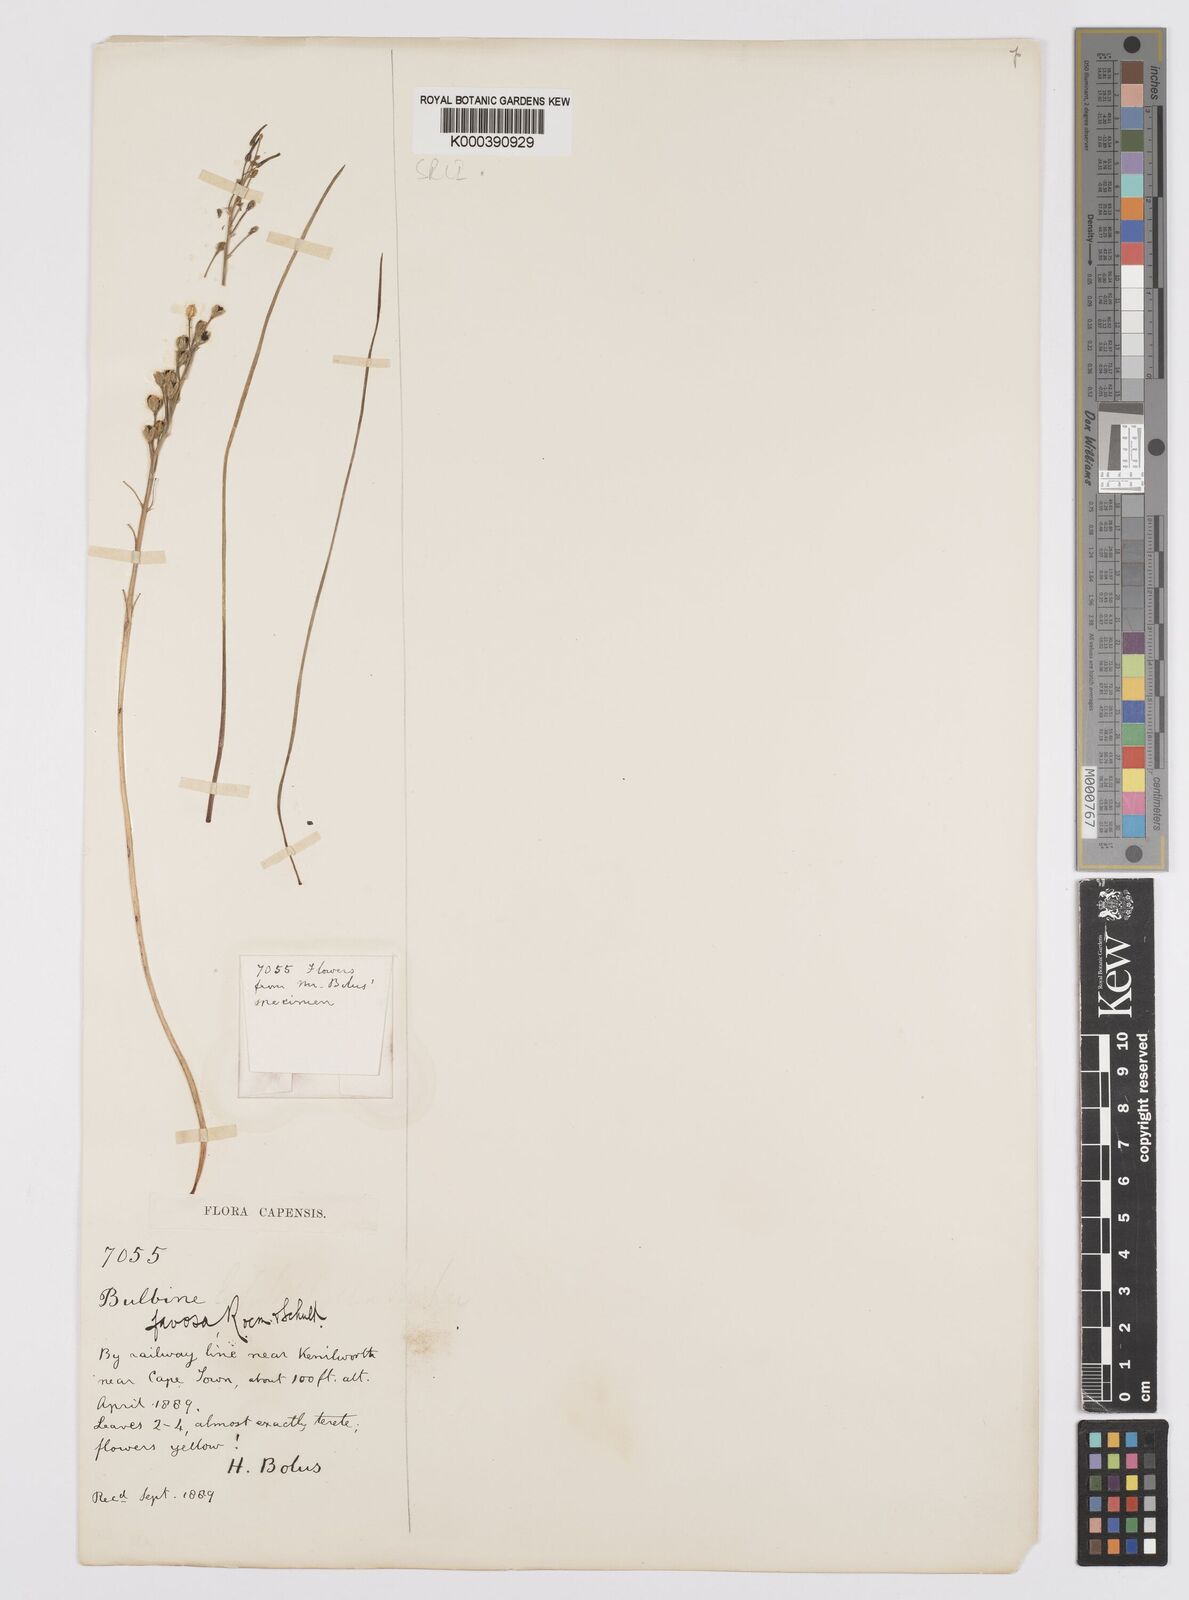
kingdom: Plantae
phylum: Tracheophyta
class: Liliopsida
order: Asparagales
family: Asphodelaceae
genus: Bulbine
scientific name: Bulbine favosa
